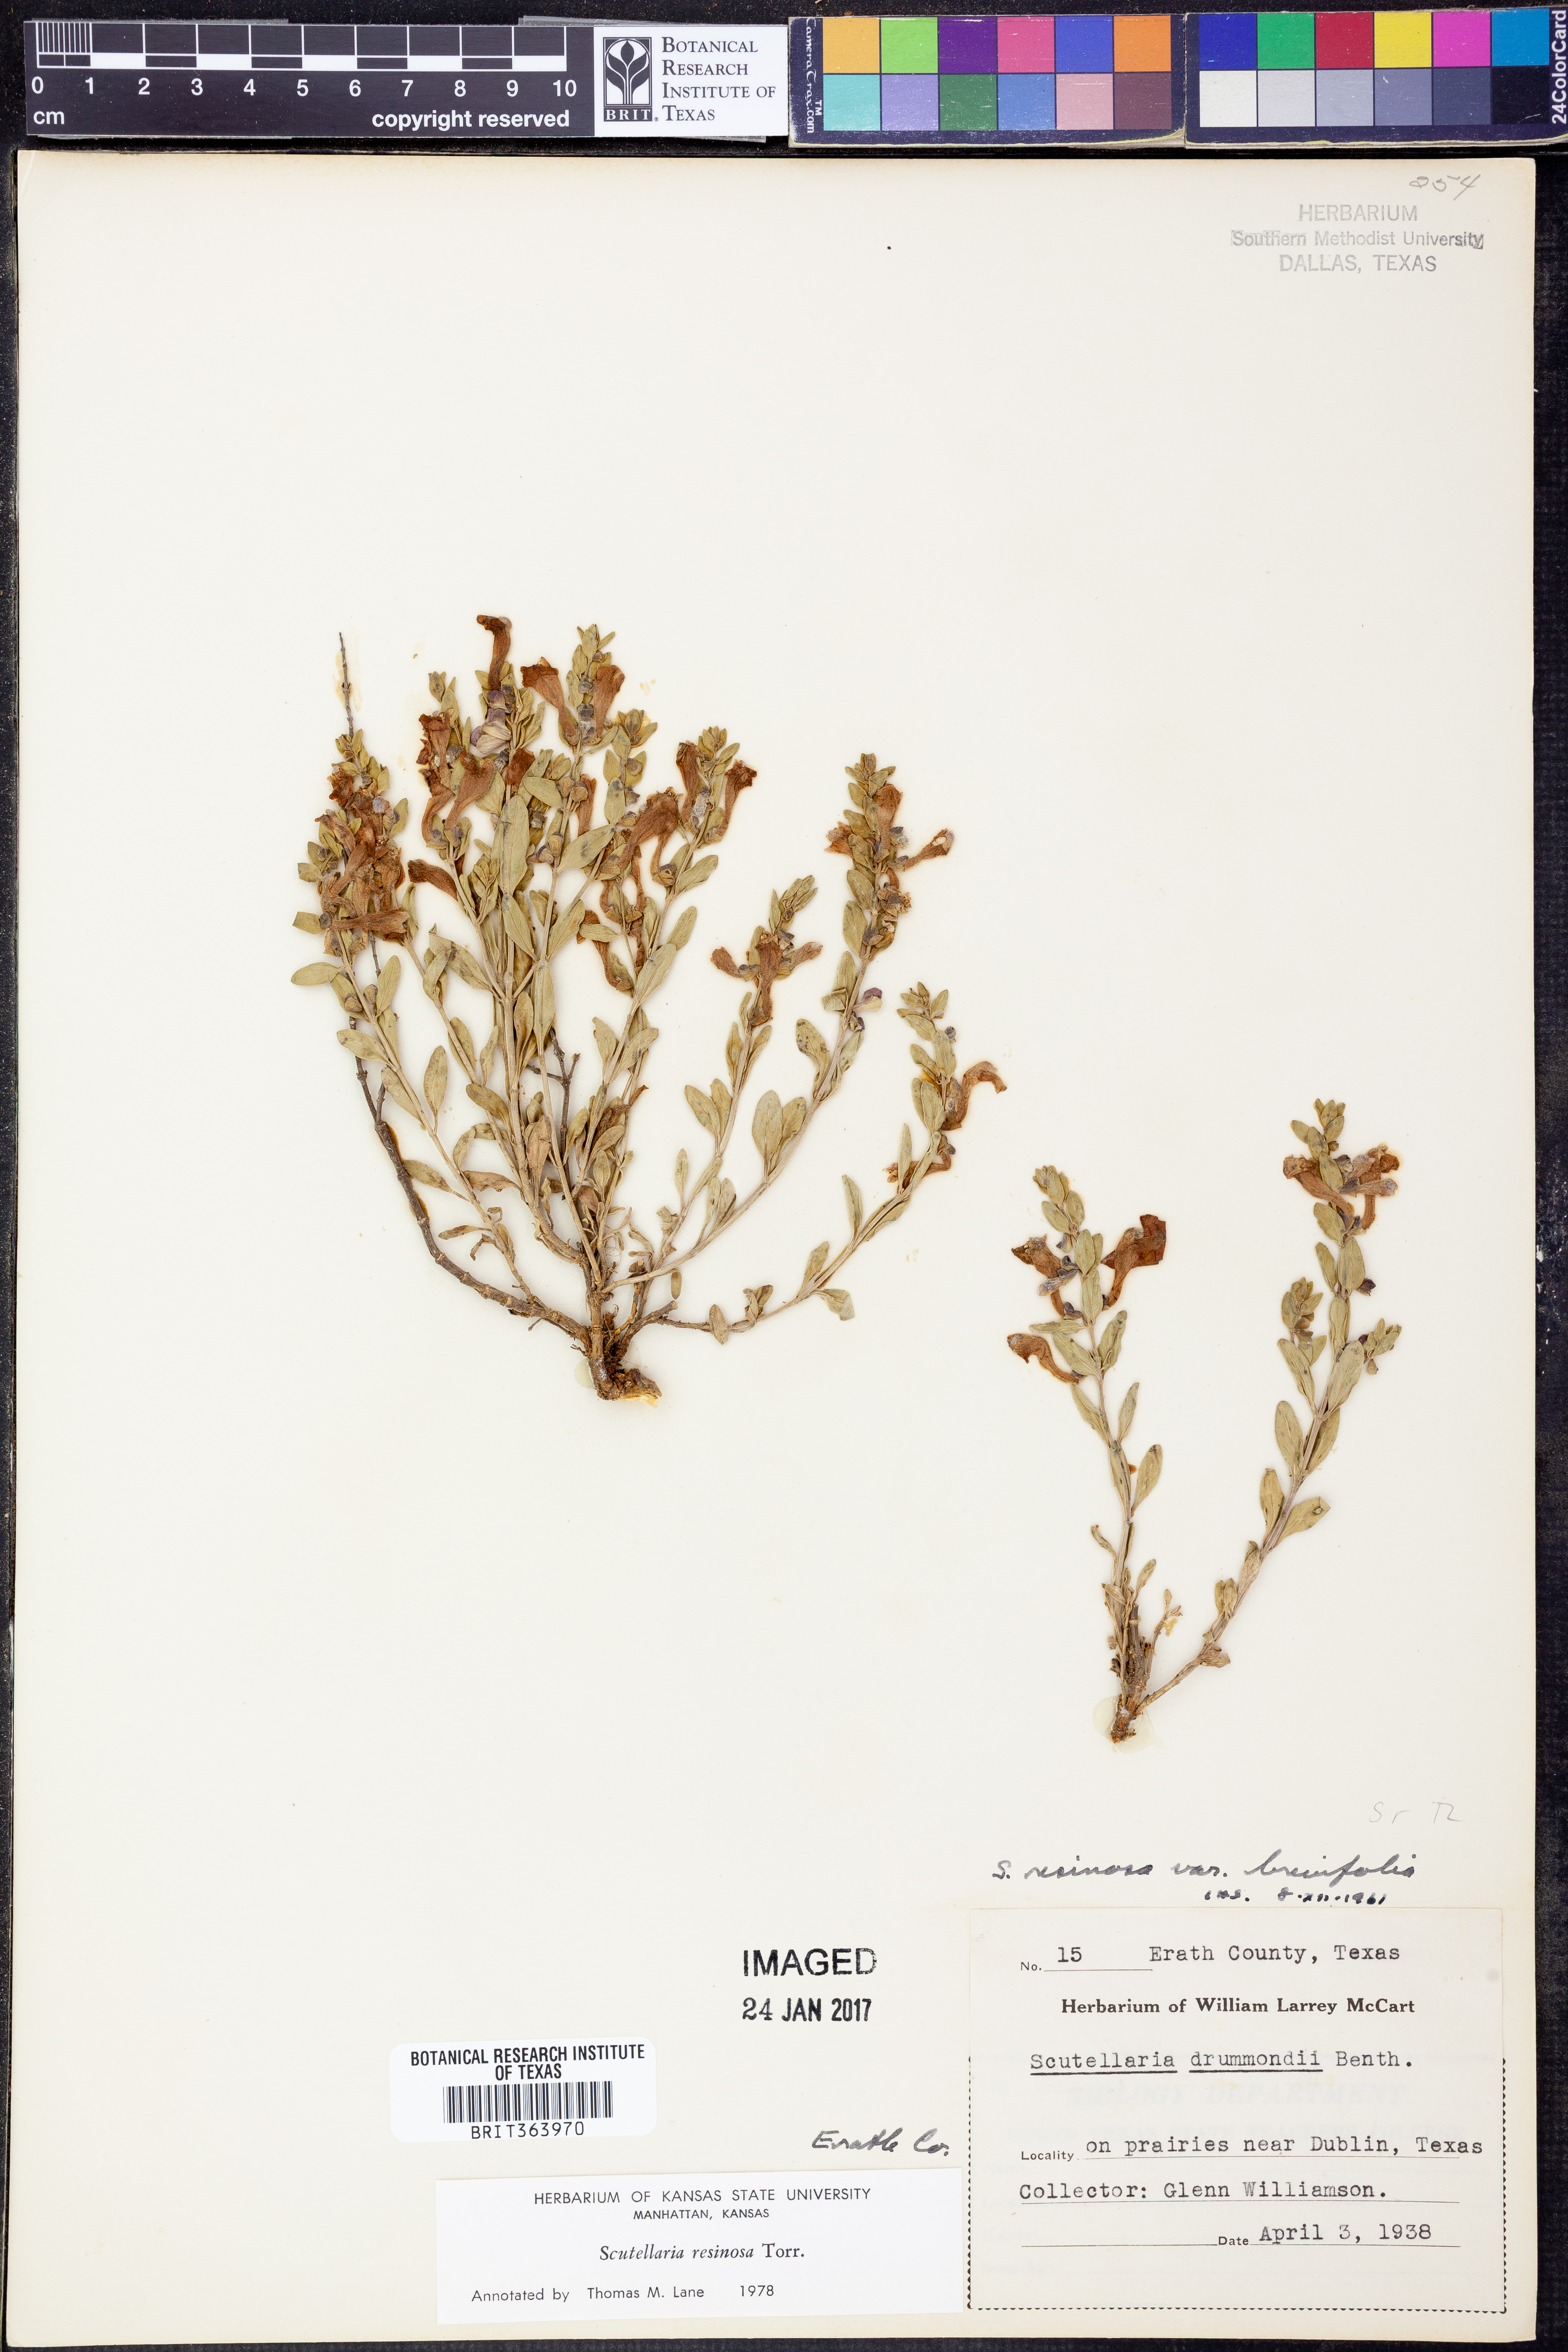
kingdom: Plantae
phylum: Tracheophyta
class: Magnoliopsida
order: Lamiales
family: Lamiaceae
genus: Scutellaria
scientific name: Scutellaria resinosa
